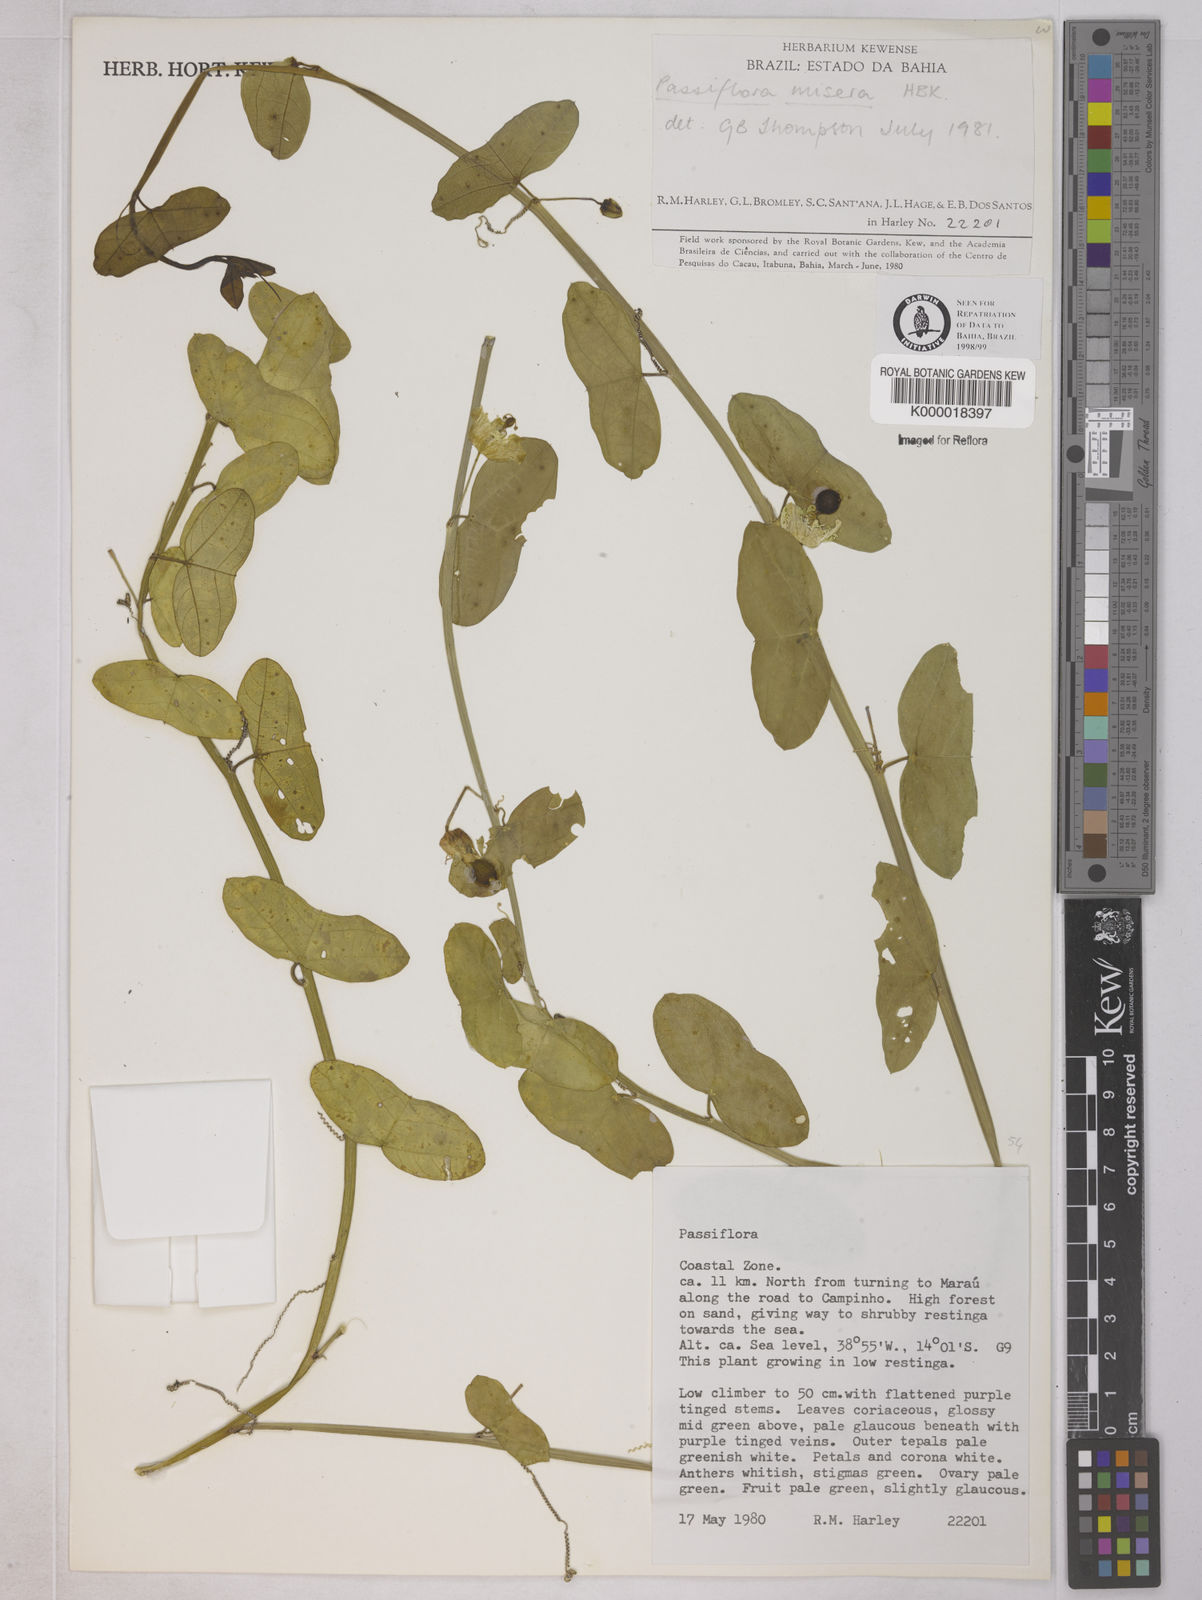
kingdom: Plantae
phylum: Tracheophyta
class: Magnoliopsida
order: Malpighiales
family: Passifloraceae
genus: Passiflora
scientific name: Passiflora misera
